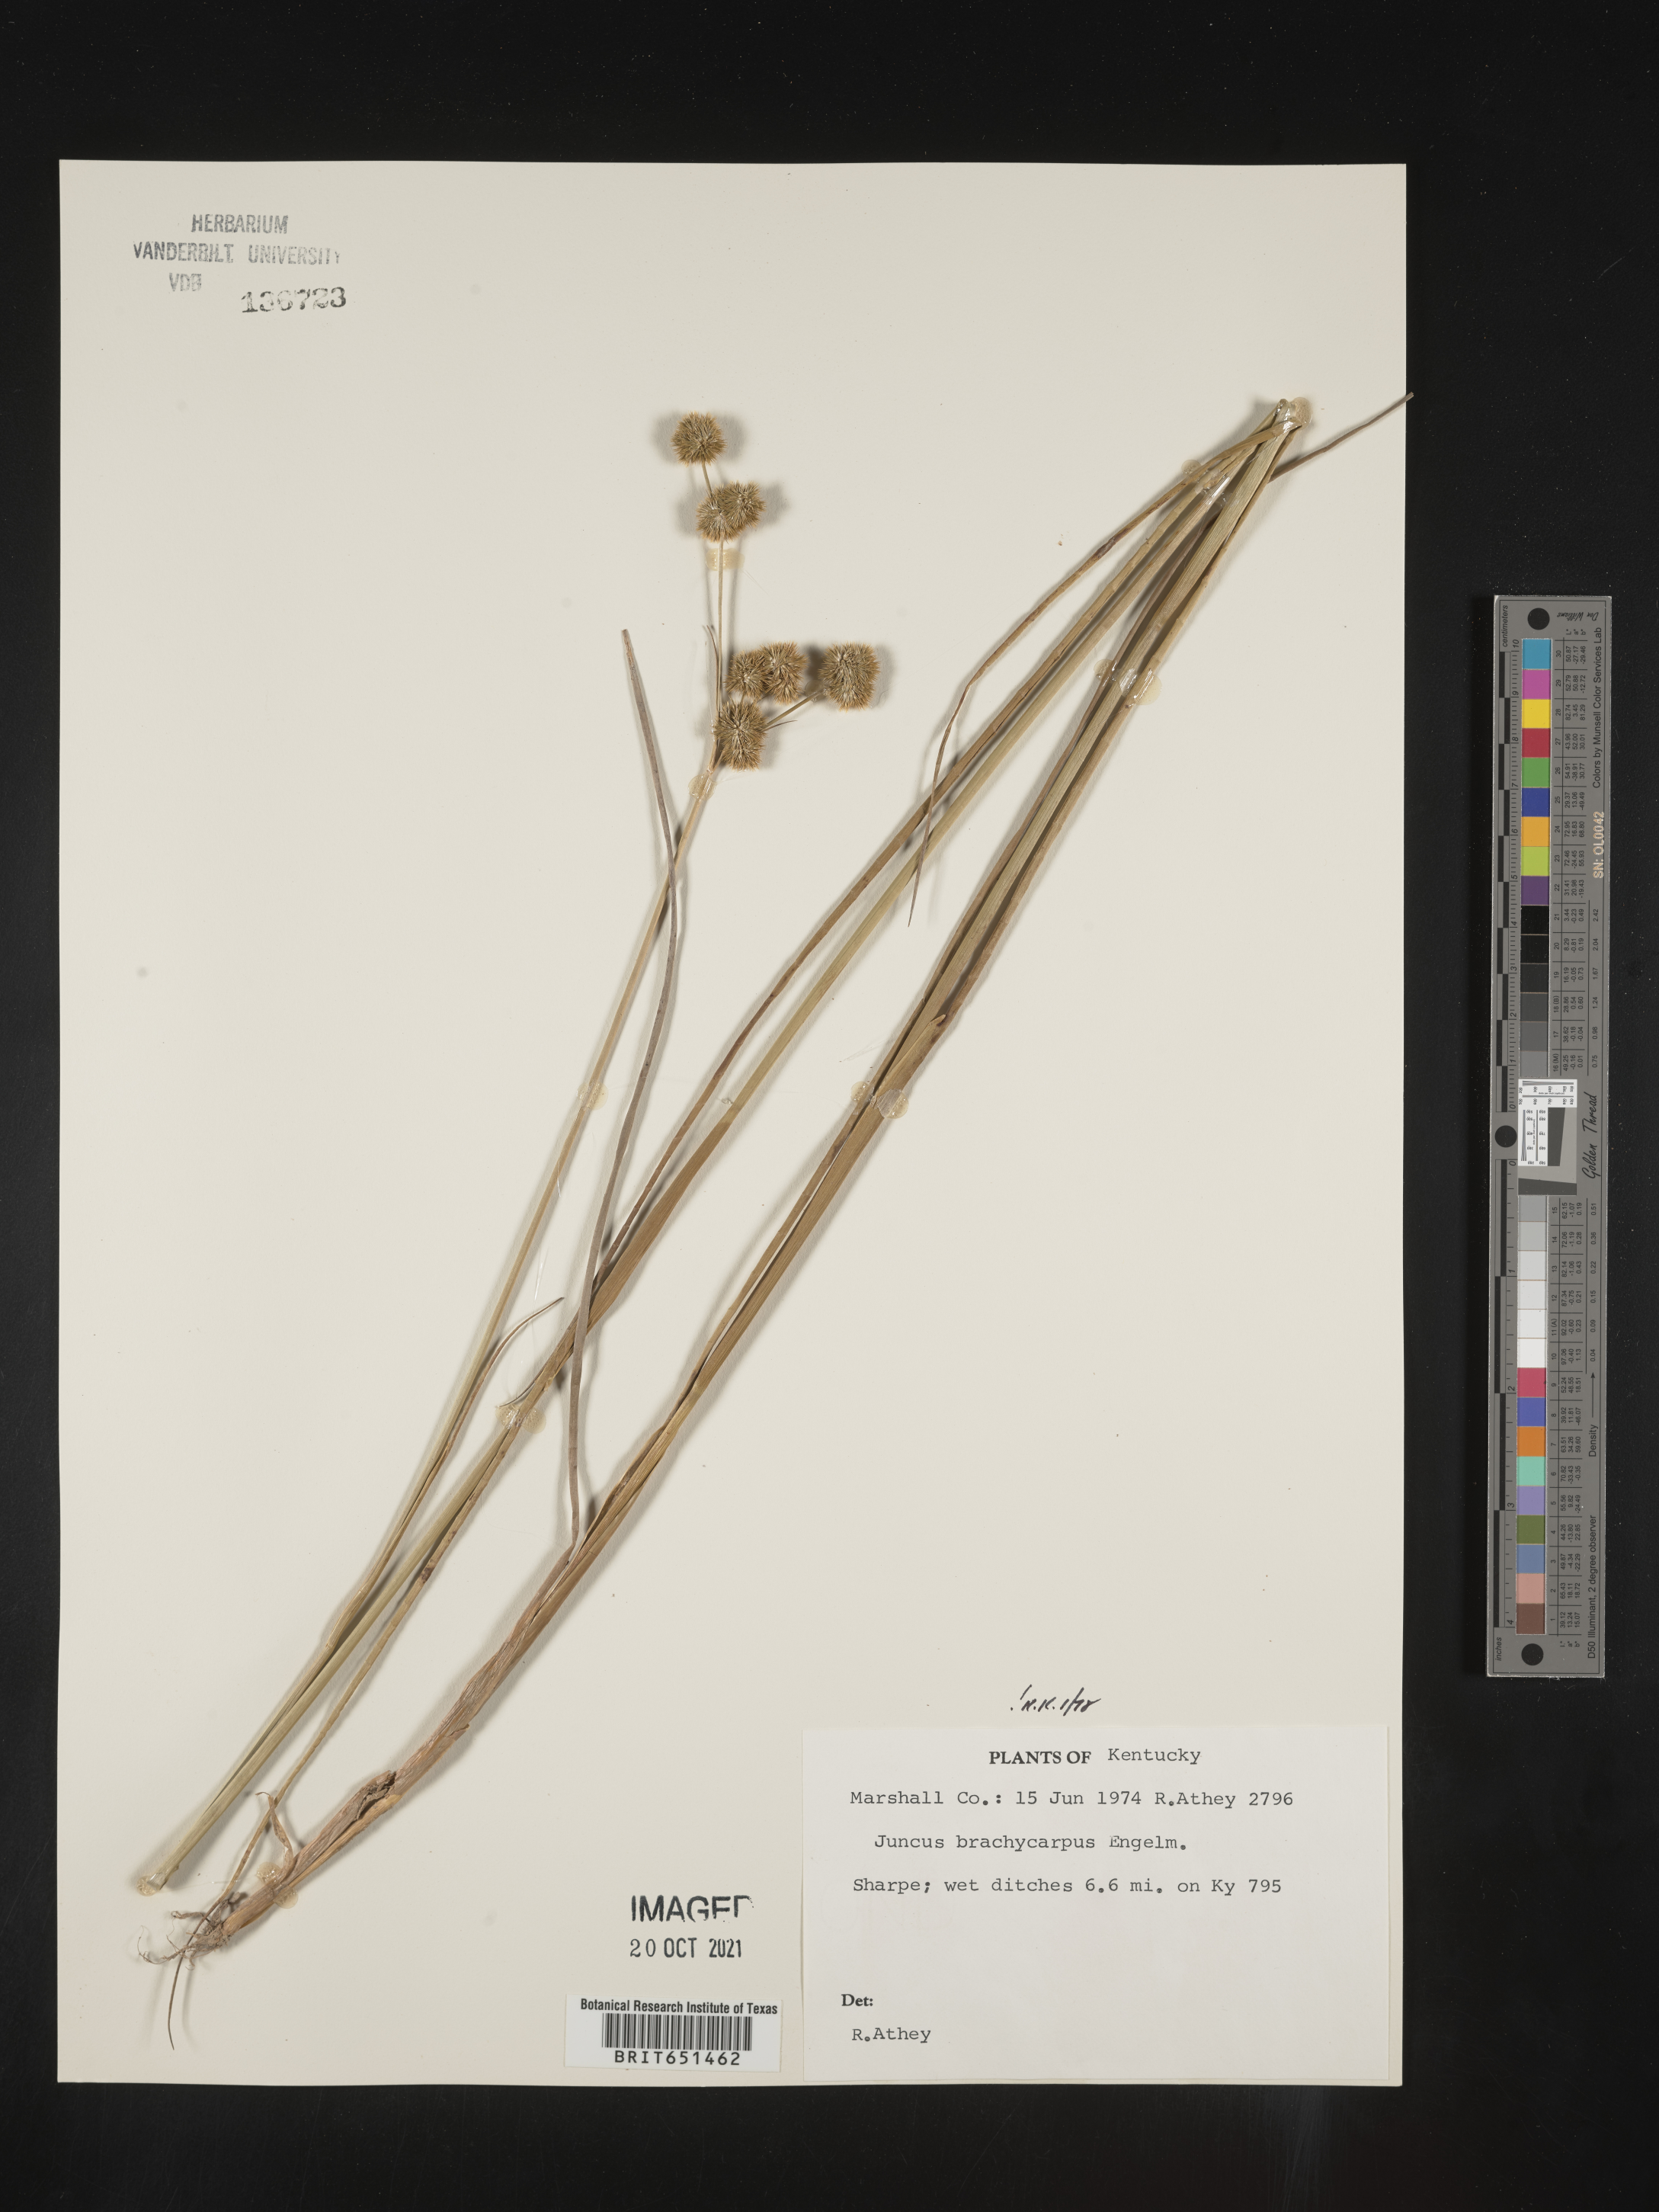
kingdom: Plantae
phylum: Tracheophyta
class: Liliopsida
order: Poales
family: Juncaceae
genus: Juncus
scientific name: Juncus brachycarpus
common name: Shore rush
